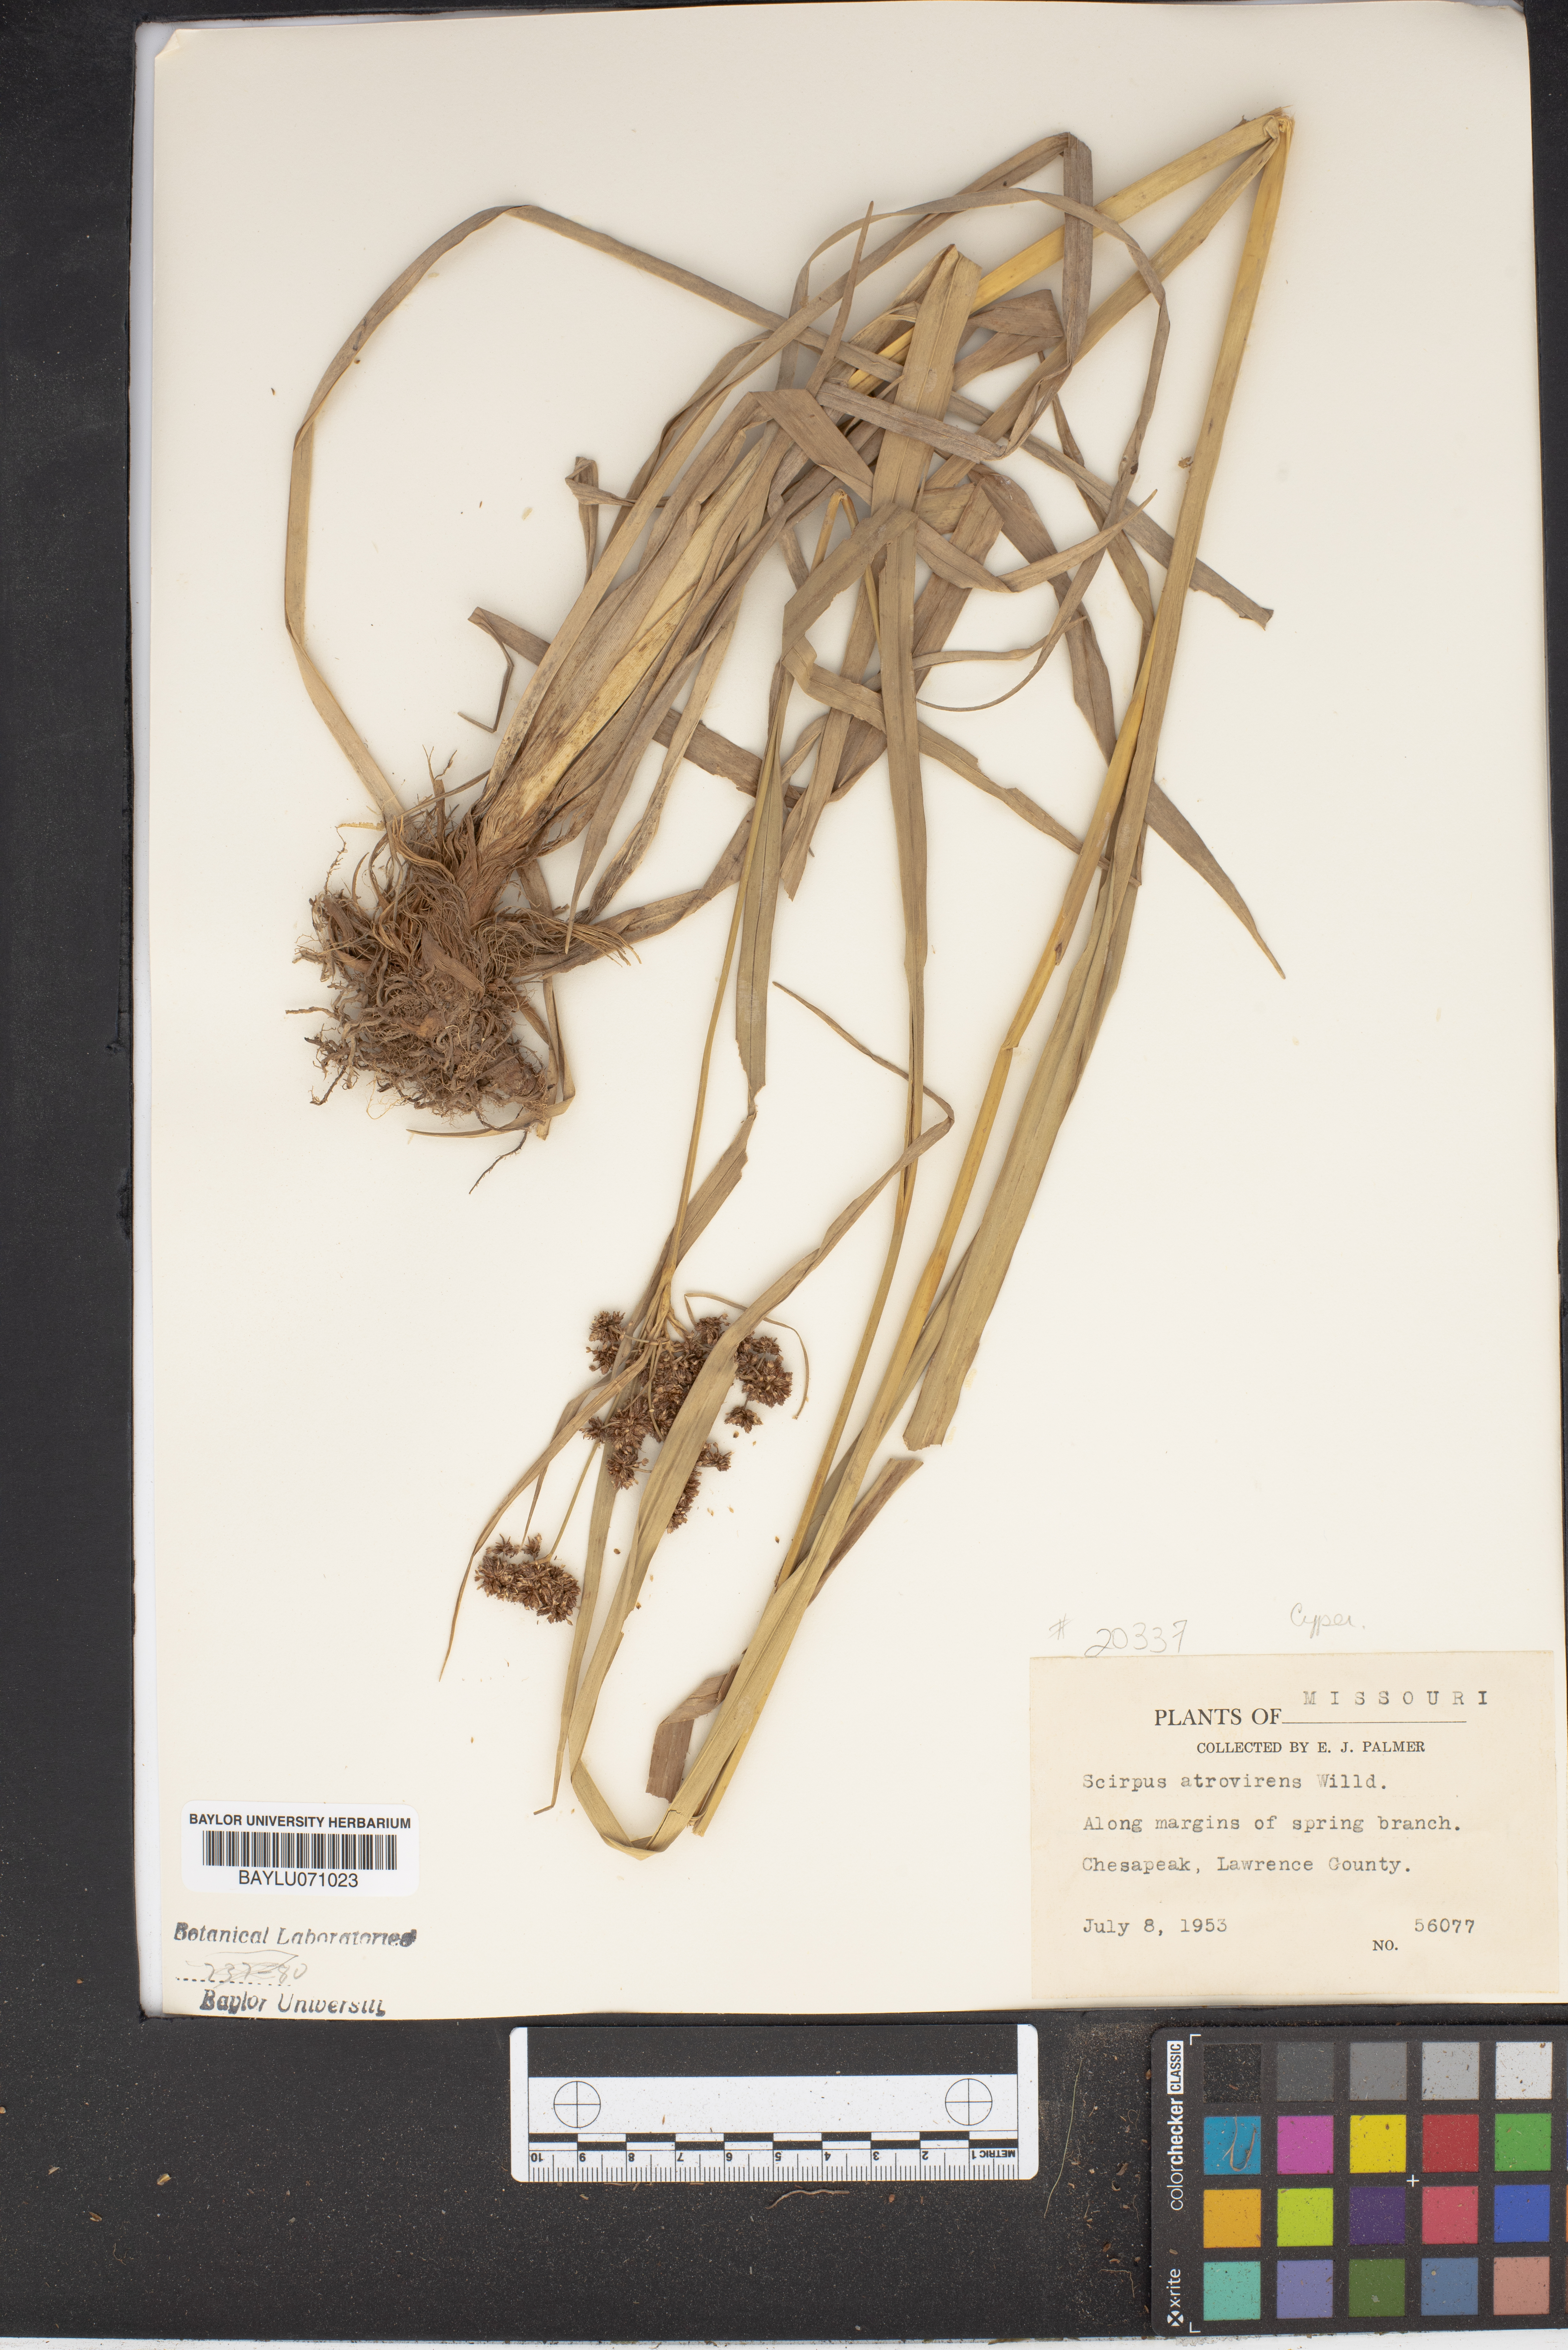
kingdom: Plantae
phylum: Tracheophyta
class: Liliopsida
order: Poales
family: Cyperaceae
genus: Scirpus
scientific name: Scirpus atrovirens
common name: Black bulrush
